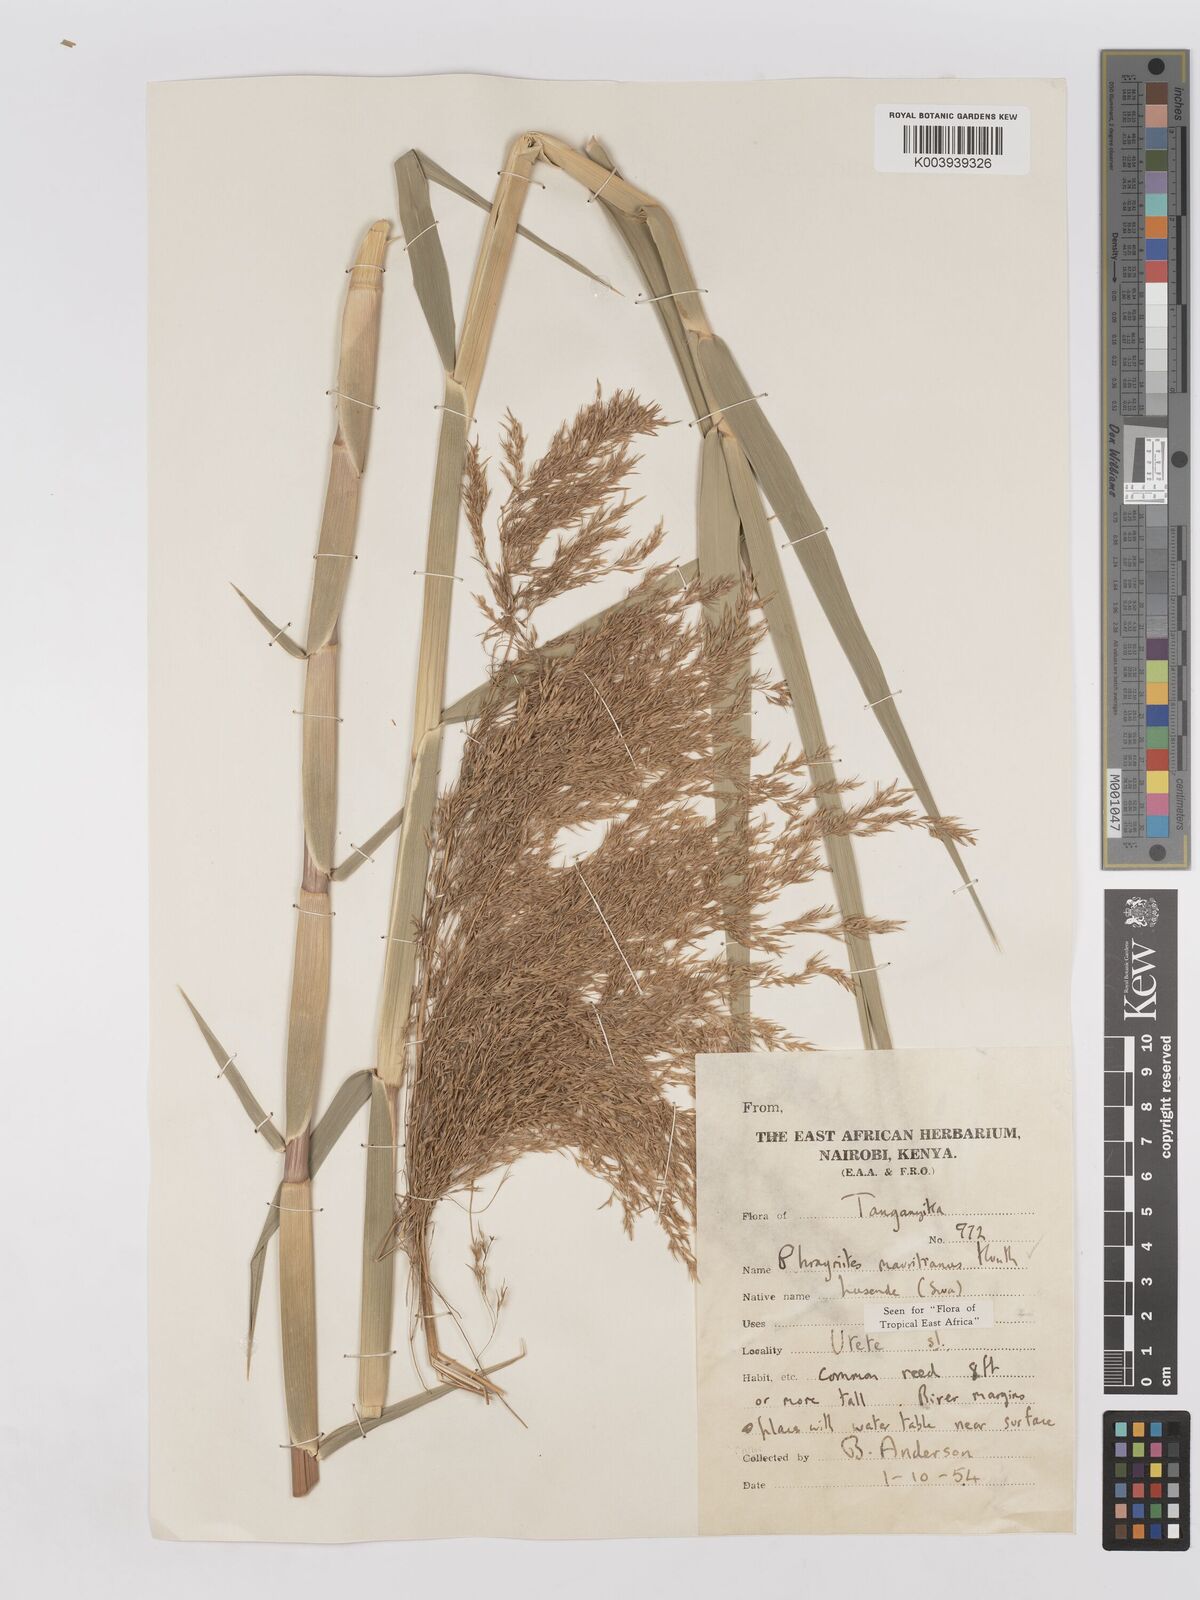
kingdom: Plantae
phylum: Tracheophyta
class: Liliopsida
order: Poales
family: Poaceae
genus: Phragmites
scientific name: Phragmites mauritianus
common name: Reed grass
